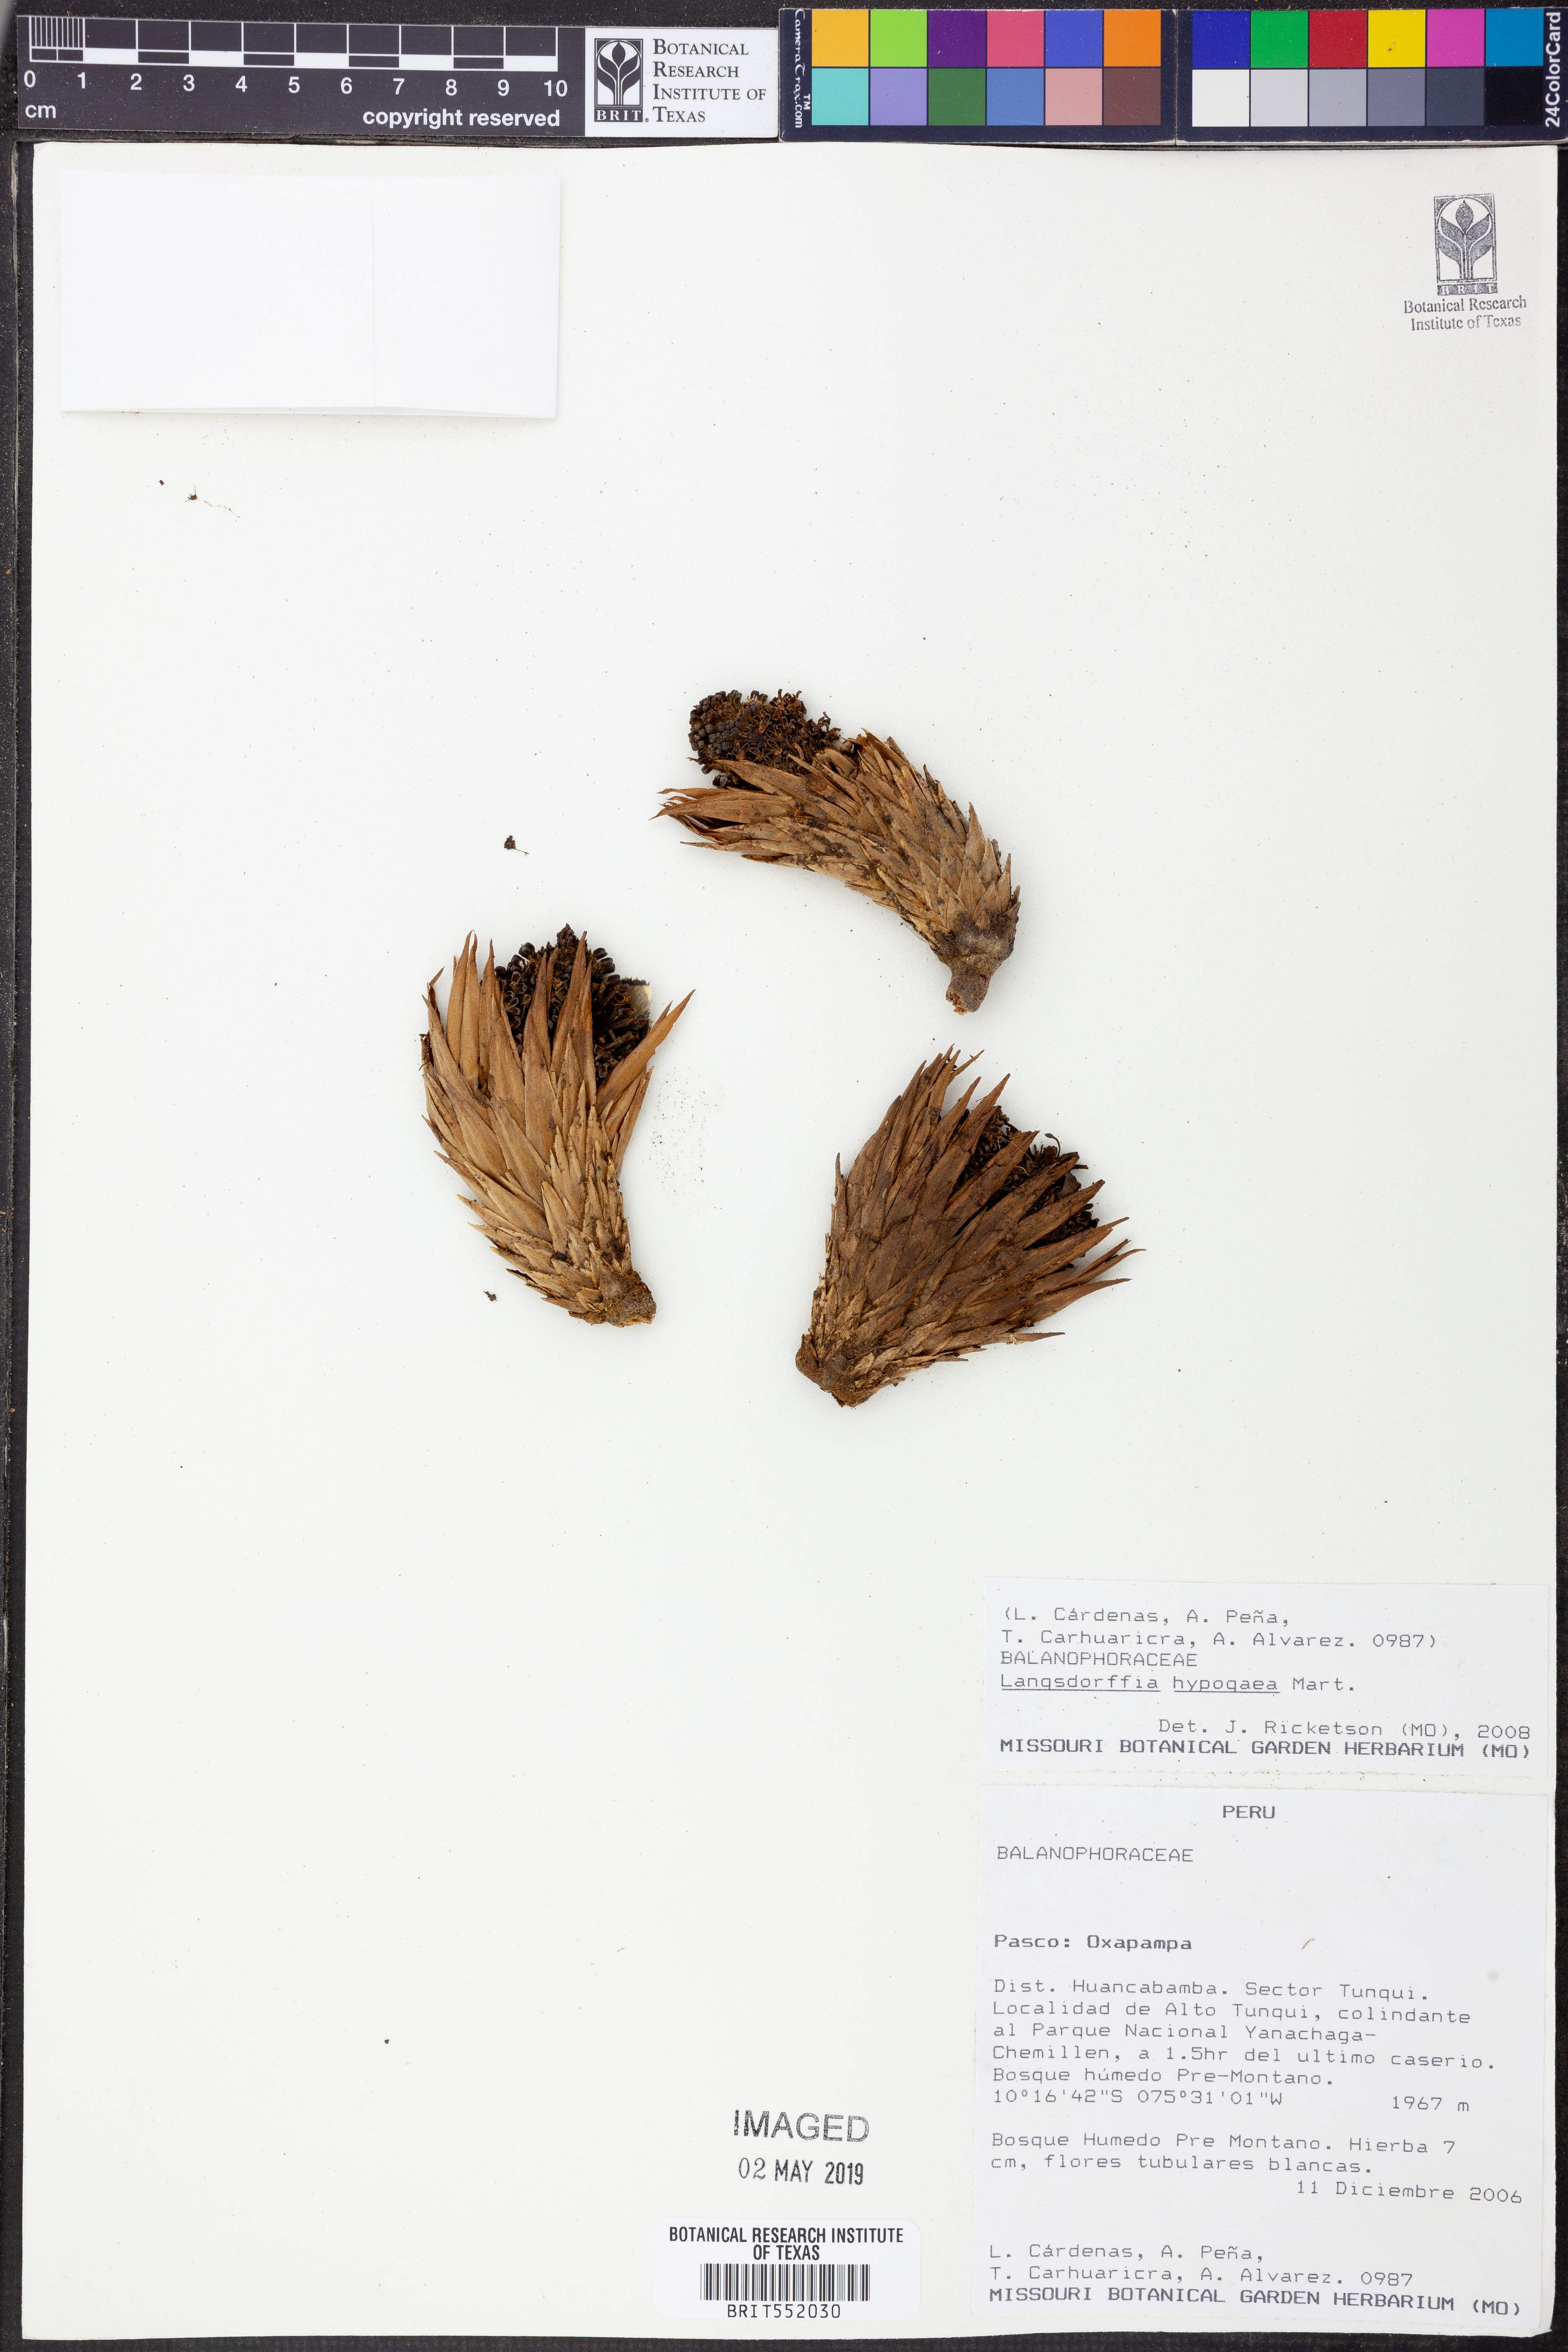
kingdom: Plantae
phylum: Tracheophyta
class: Magnoliopsida
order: Santalales
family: Balanophoraceae
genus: Langsdorffia
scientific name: Langsdorffia hypogaea
